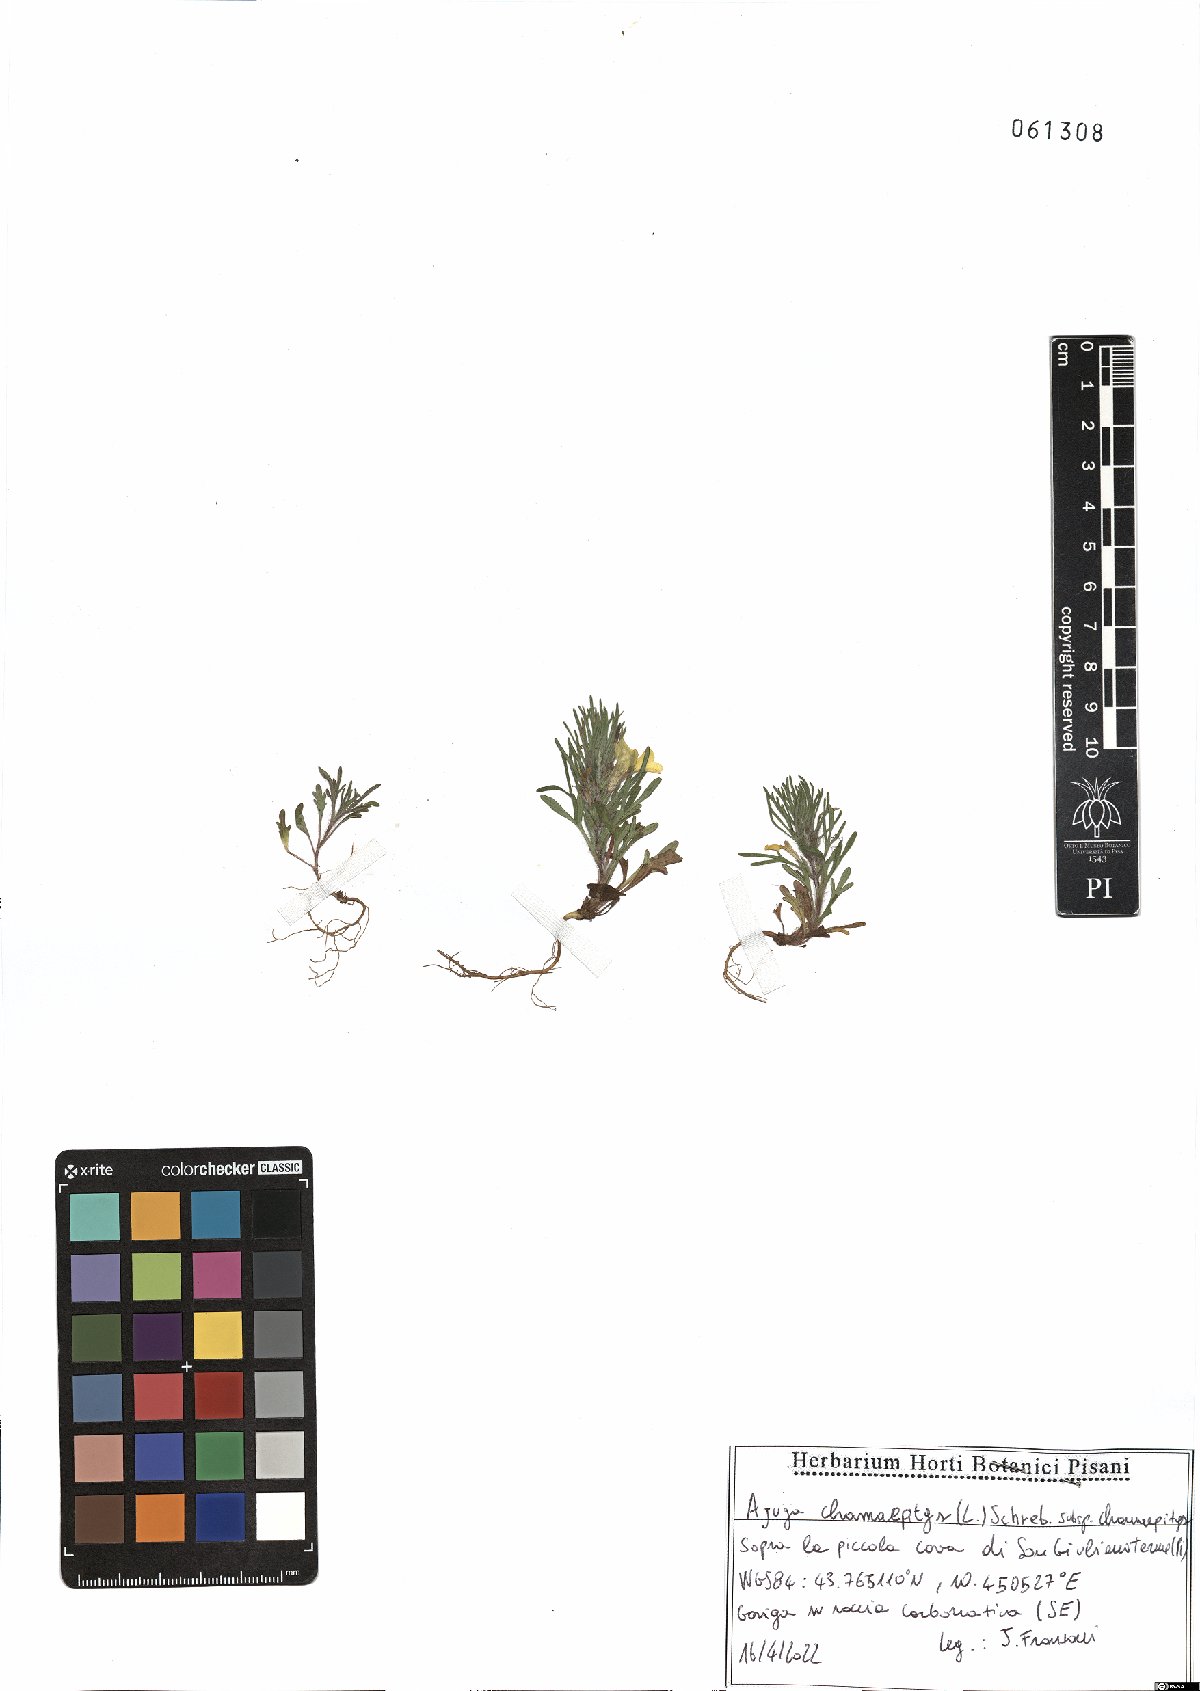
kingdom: Plantae
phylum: Tracheophyta
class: Magnoliopsida
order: Lamiales
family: Lamiaceae
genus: Ajuga
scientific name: Ajuga chamaepitys
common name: Ground-pine
